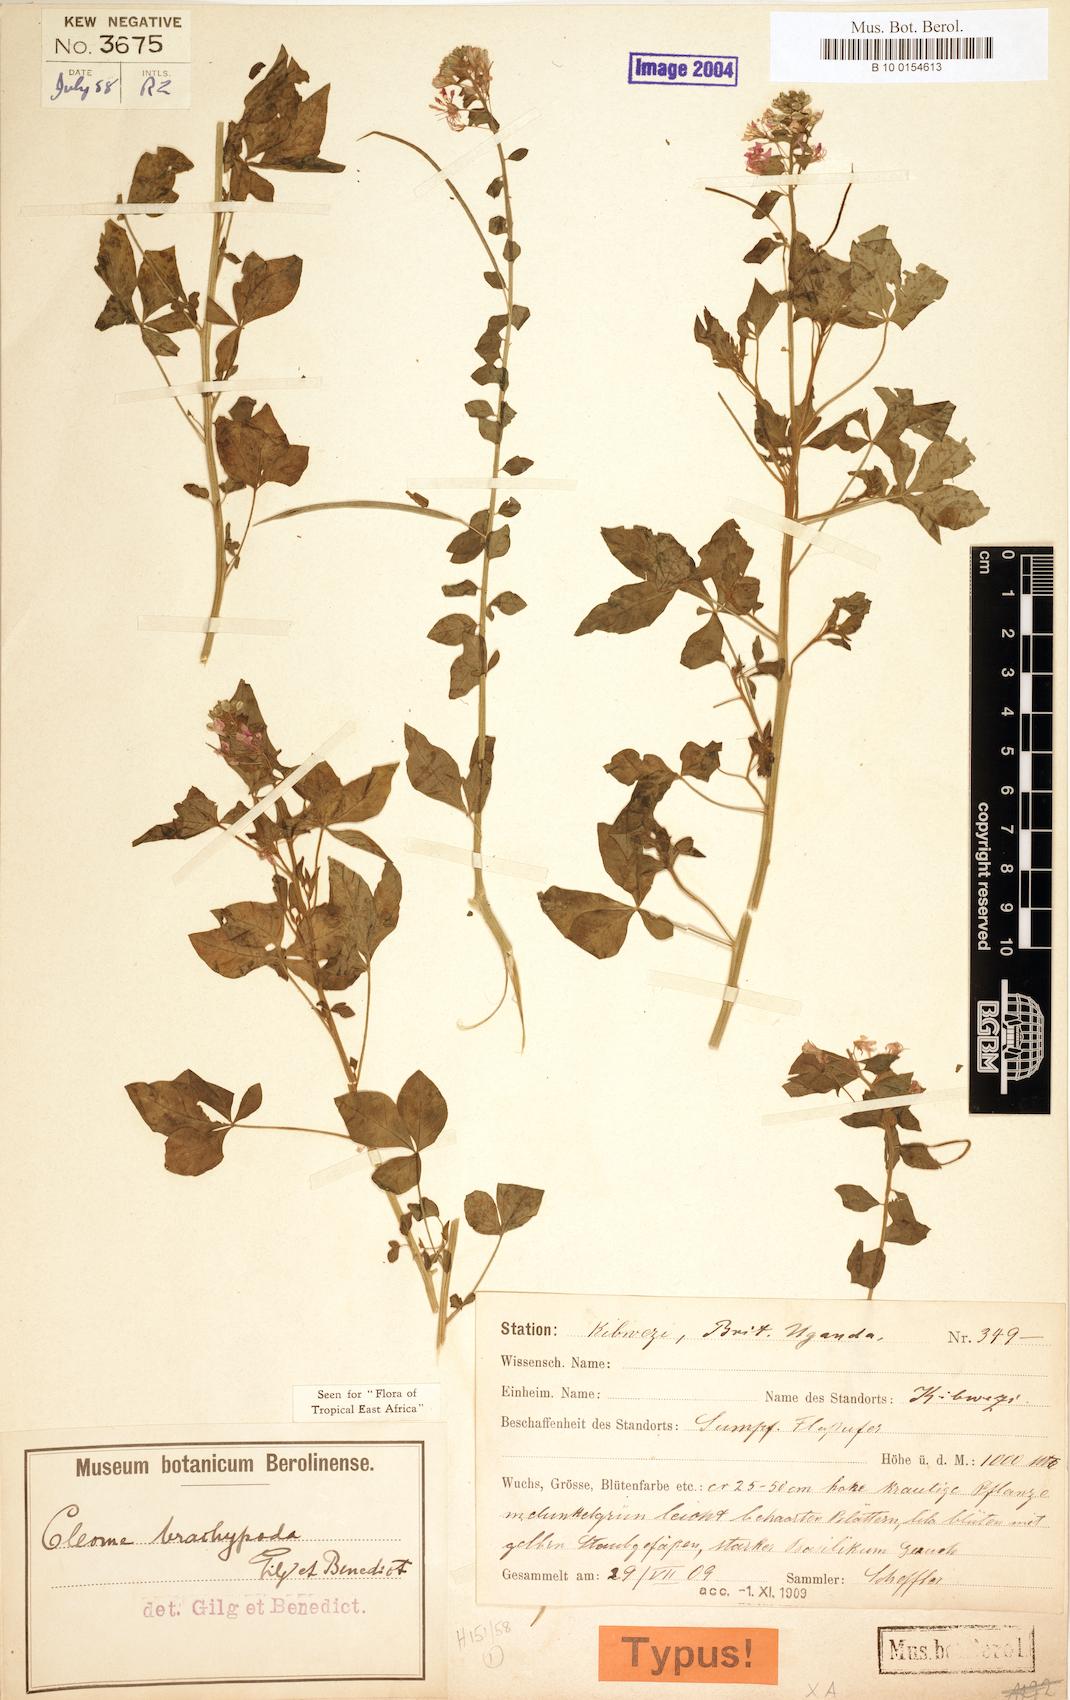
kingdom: Plantae
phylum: Tracheophyta
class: Magnoliopsida
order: Brassicales
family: Cleomaceae
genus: Sieruela
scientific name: Sieruela briquetii
